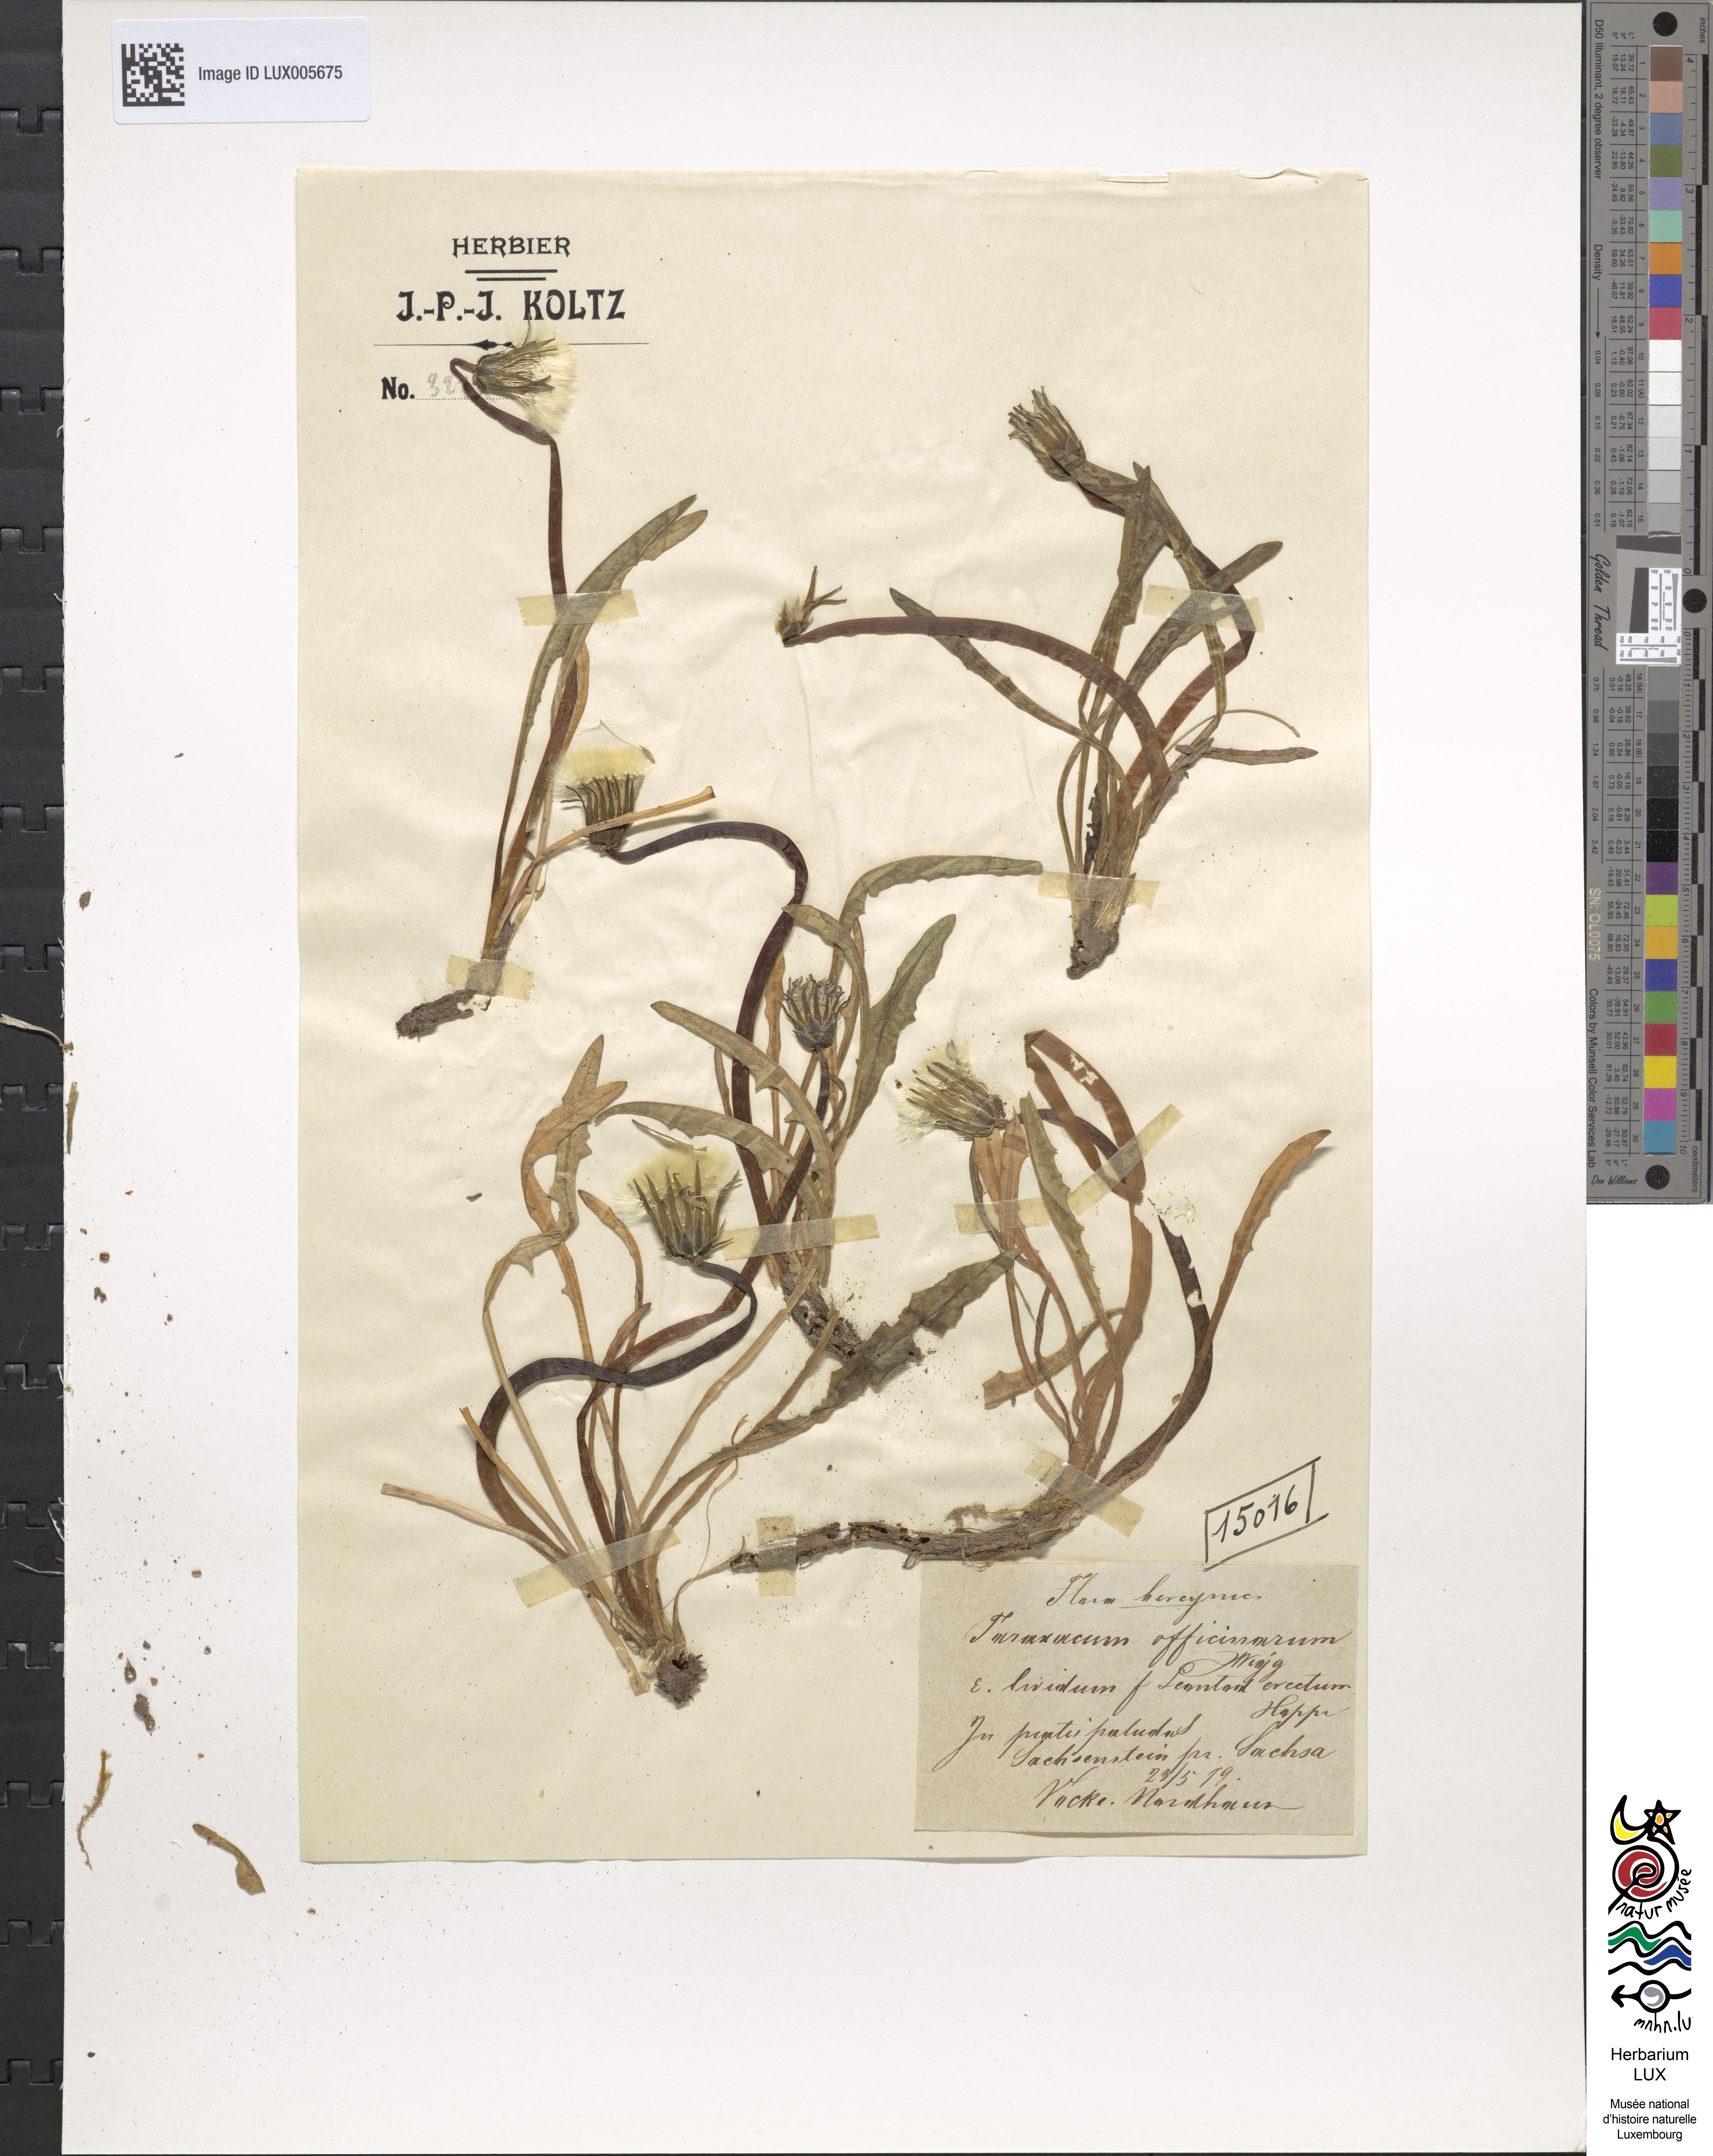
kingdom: Plantae
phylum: Tracheophyta
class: Magnoliopsida
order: Asterales
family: Asteraceae
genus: Taraxacum
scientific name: Taraxacum palustre
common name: Marsh dandelion
